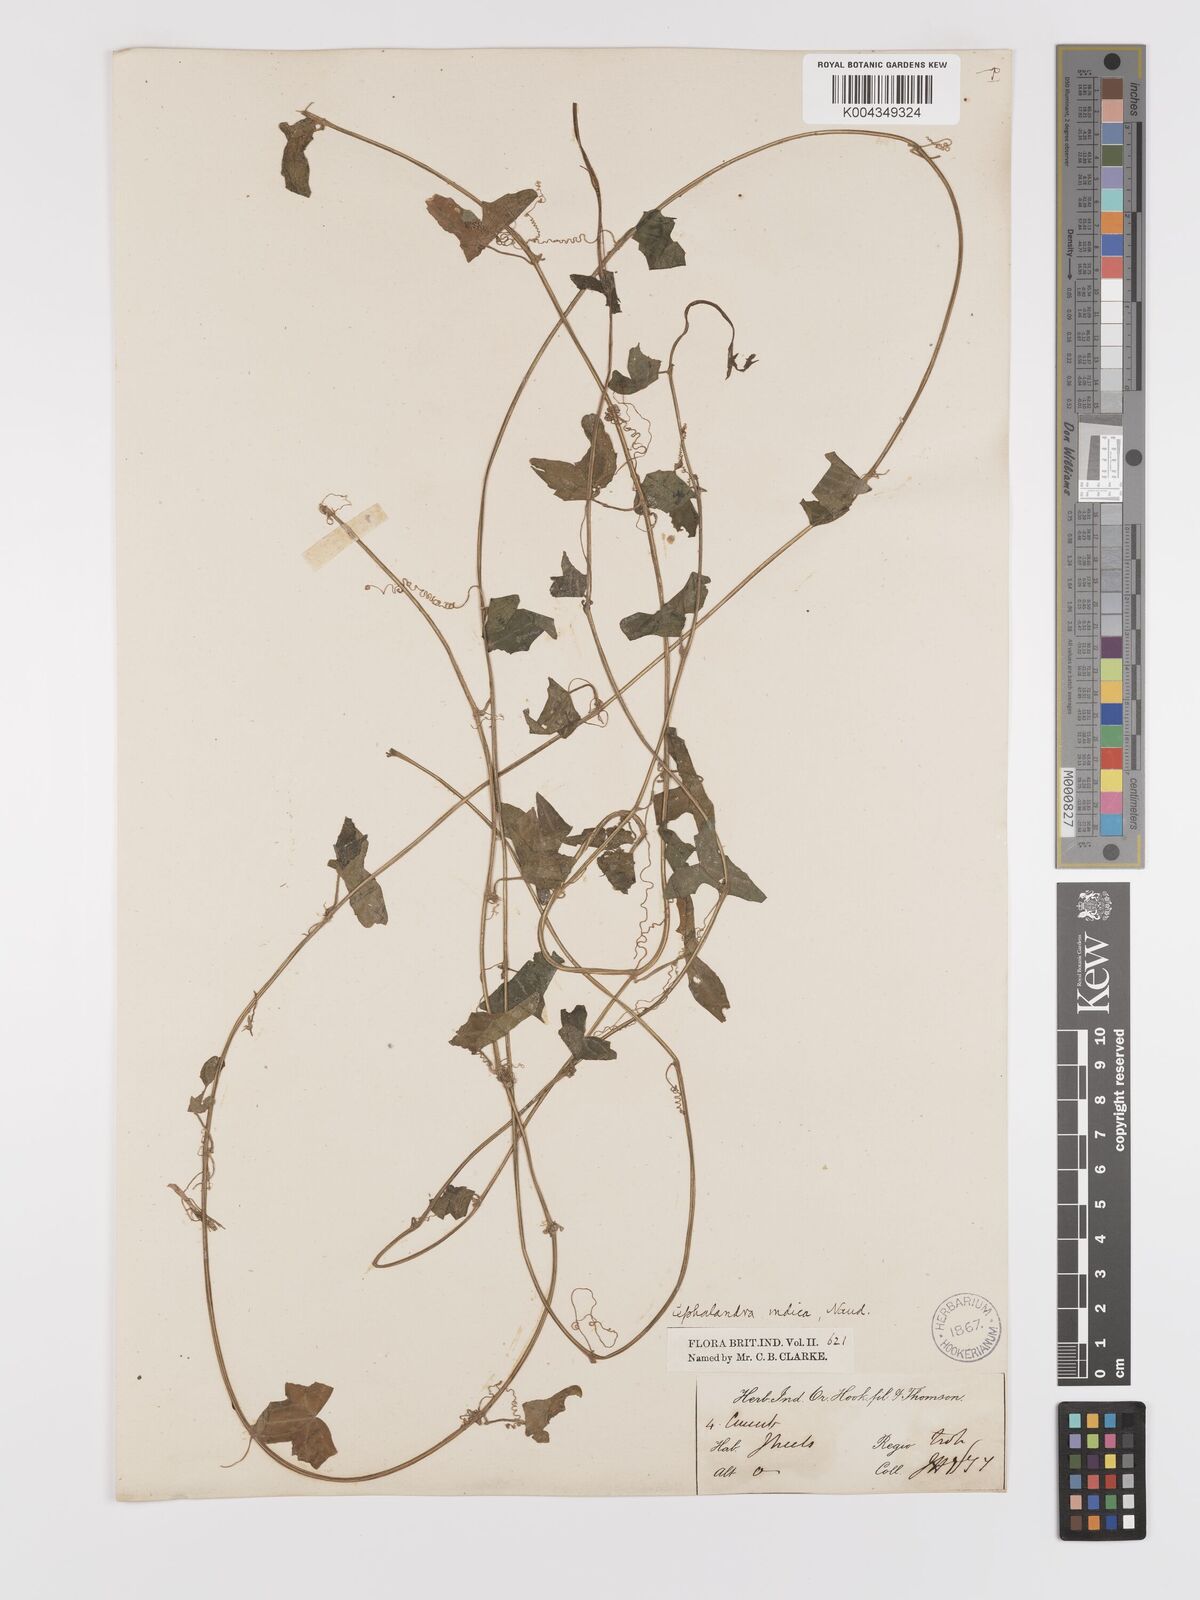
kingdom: Plantae
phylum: Tracheophyta
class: Magnoliopsida
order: Cucurbitales
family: Cucurbitaceae
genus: Zehneria
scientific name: Zehneria odorata
